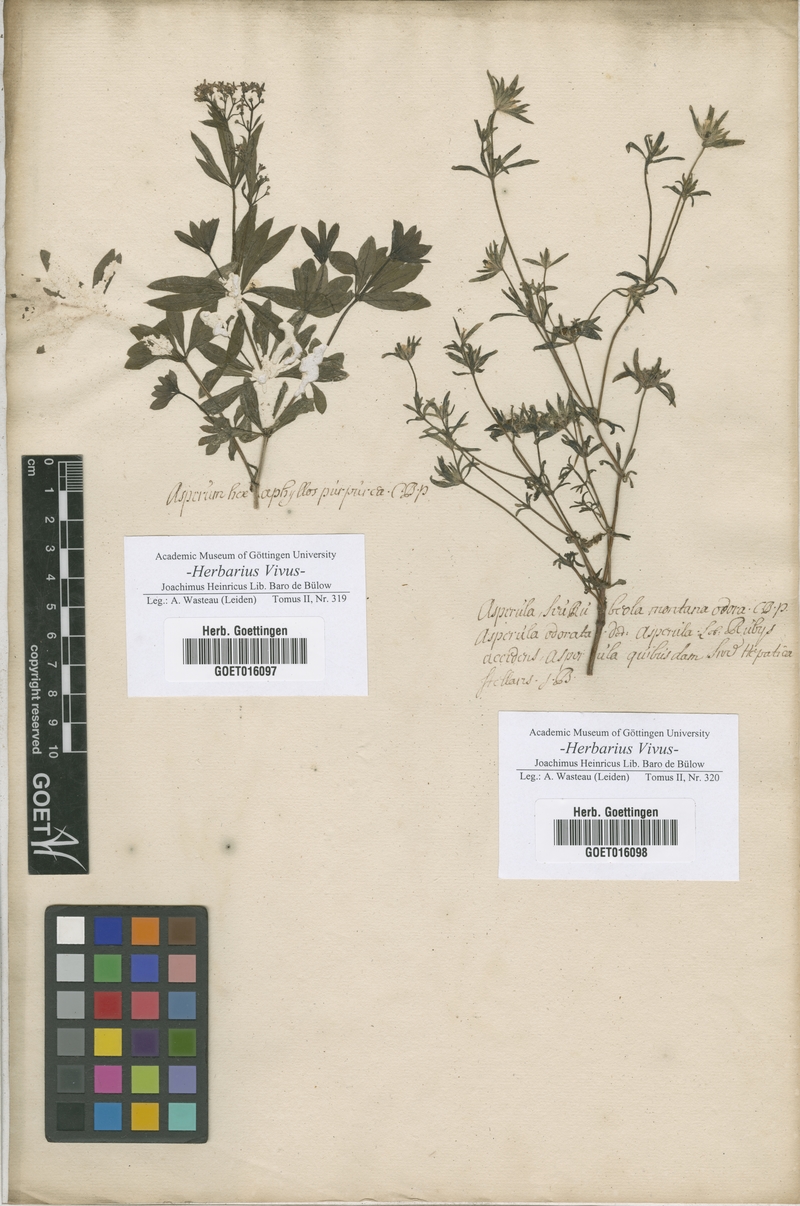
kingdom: Plantae
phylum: Tracheophyta
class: Magnoliopsida
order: Boraginales
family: Boraginaceae
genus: Borago
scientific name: Borago
